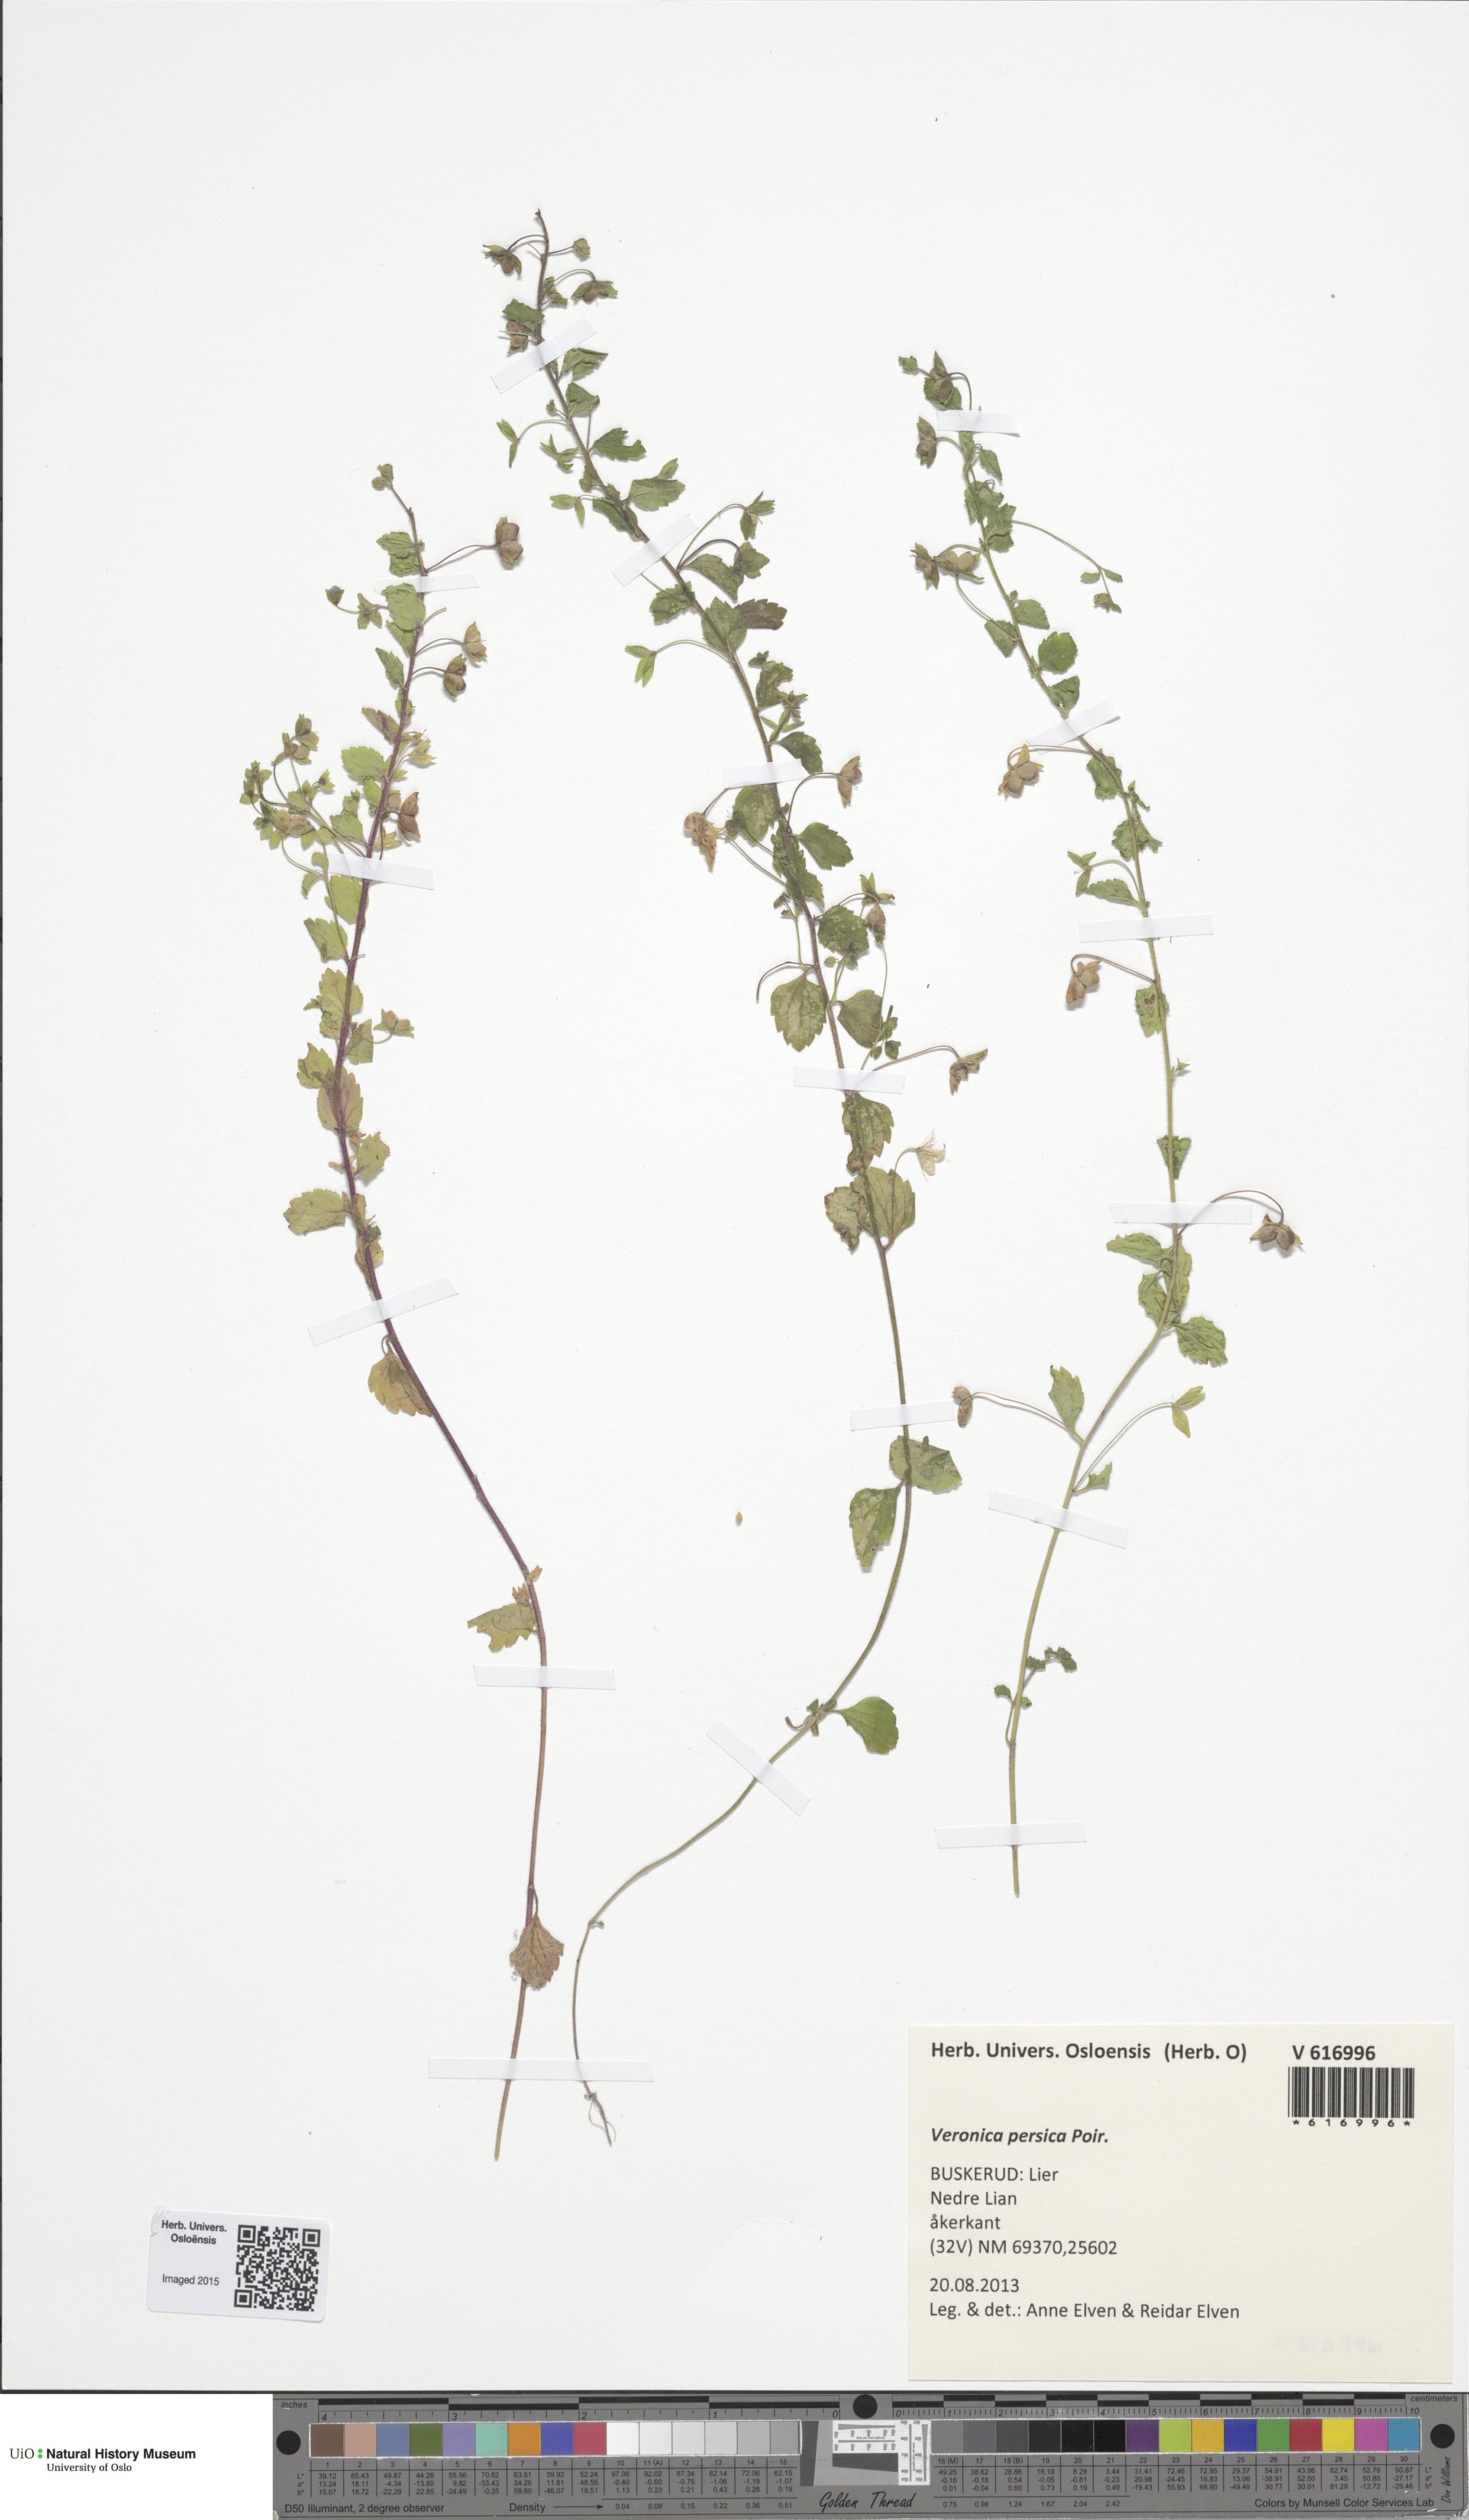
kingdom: Plantae
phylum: Tracheophyta
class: Magnoliopsida
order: Lamiales
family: Plantaginaceae
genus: Veronica
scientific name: Veronica persica
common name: Common field-speedwell
